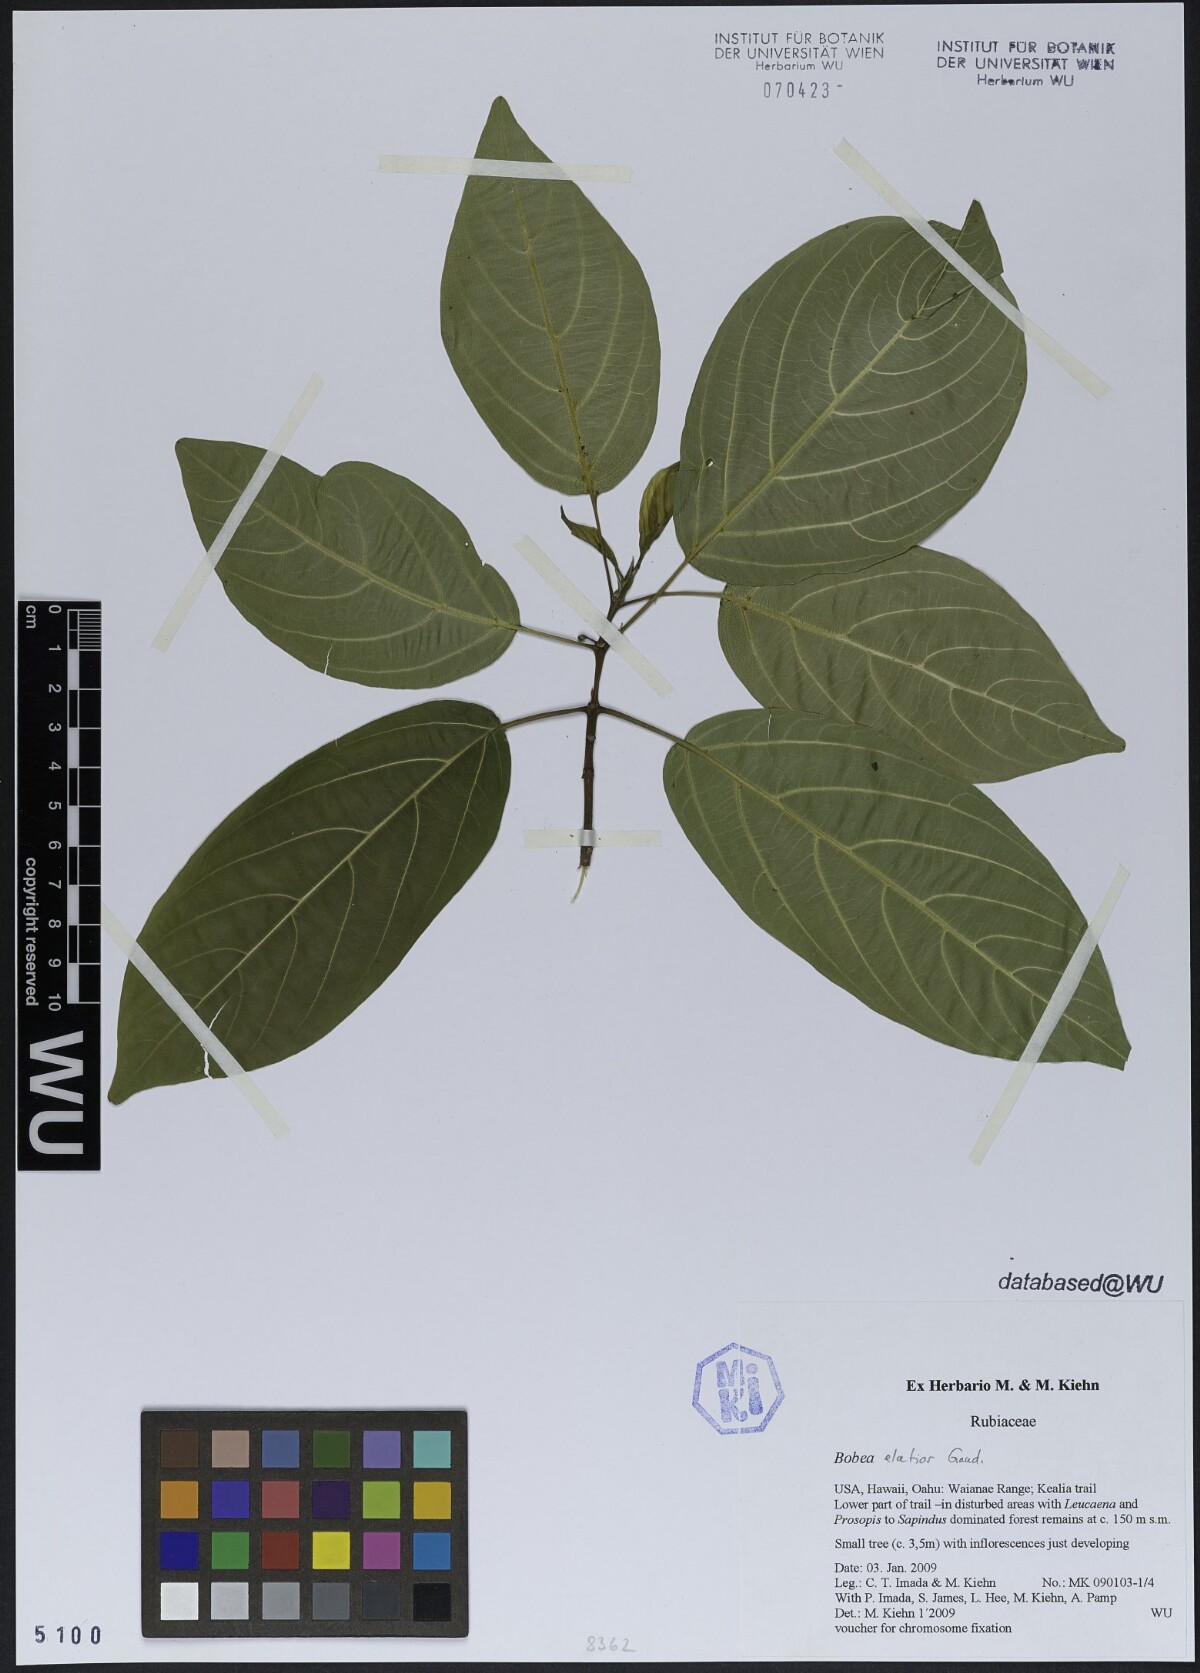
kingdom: Plantae
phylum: Tracheophyta
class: Magnoliopsida
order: Gentianales
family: Rubiaceae
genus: Bobea
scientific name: Bobea gaudichaudii
